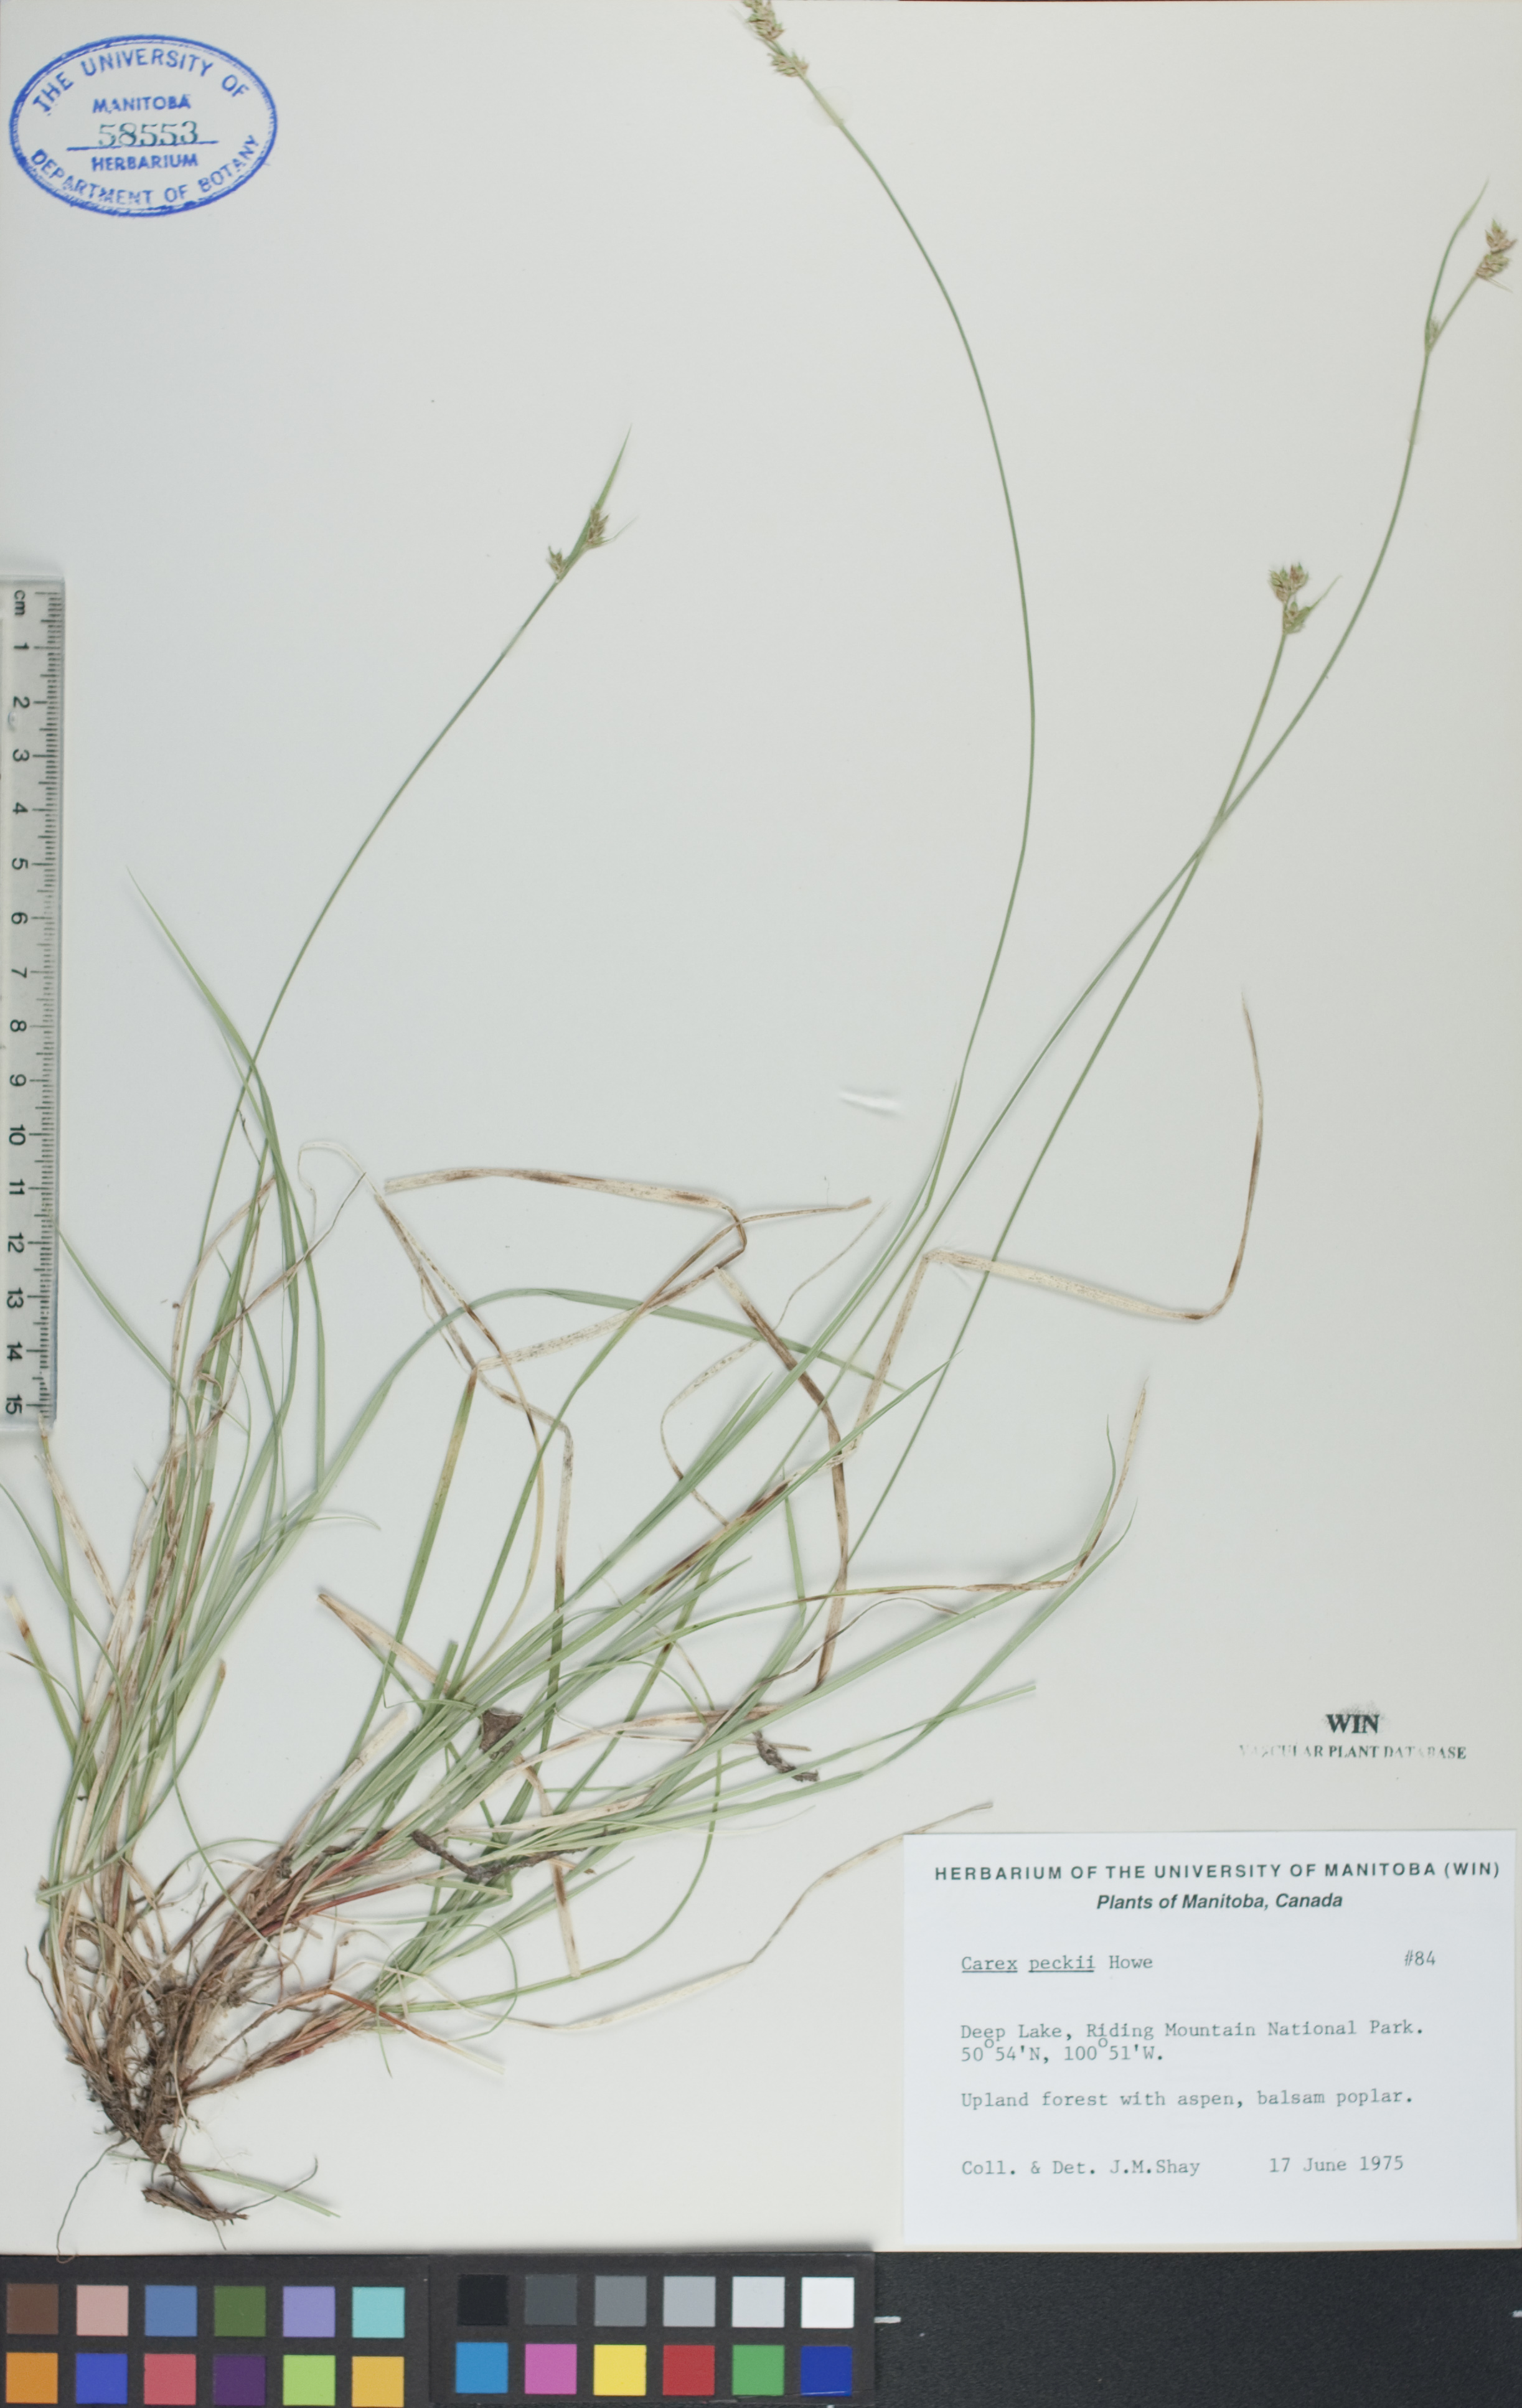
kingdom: Plantae
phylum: Tracheophyta
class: Liliopsida
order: Poales
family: Cyperaceae
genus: Carex
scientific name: Carex peckii
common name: Peck's oak sedge
